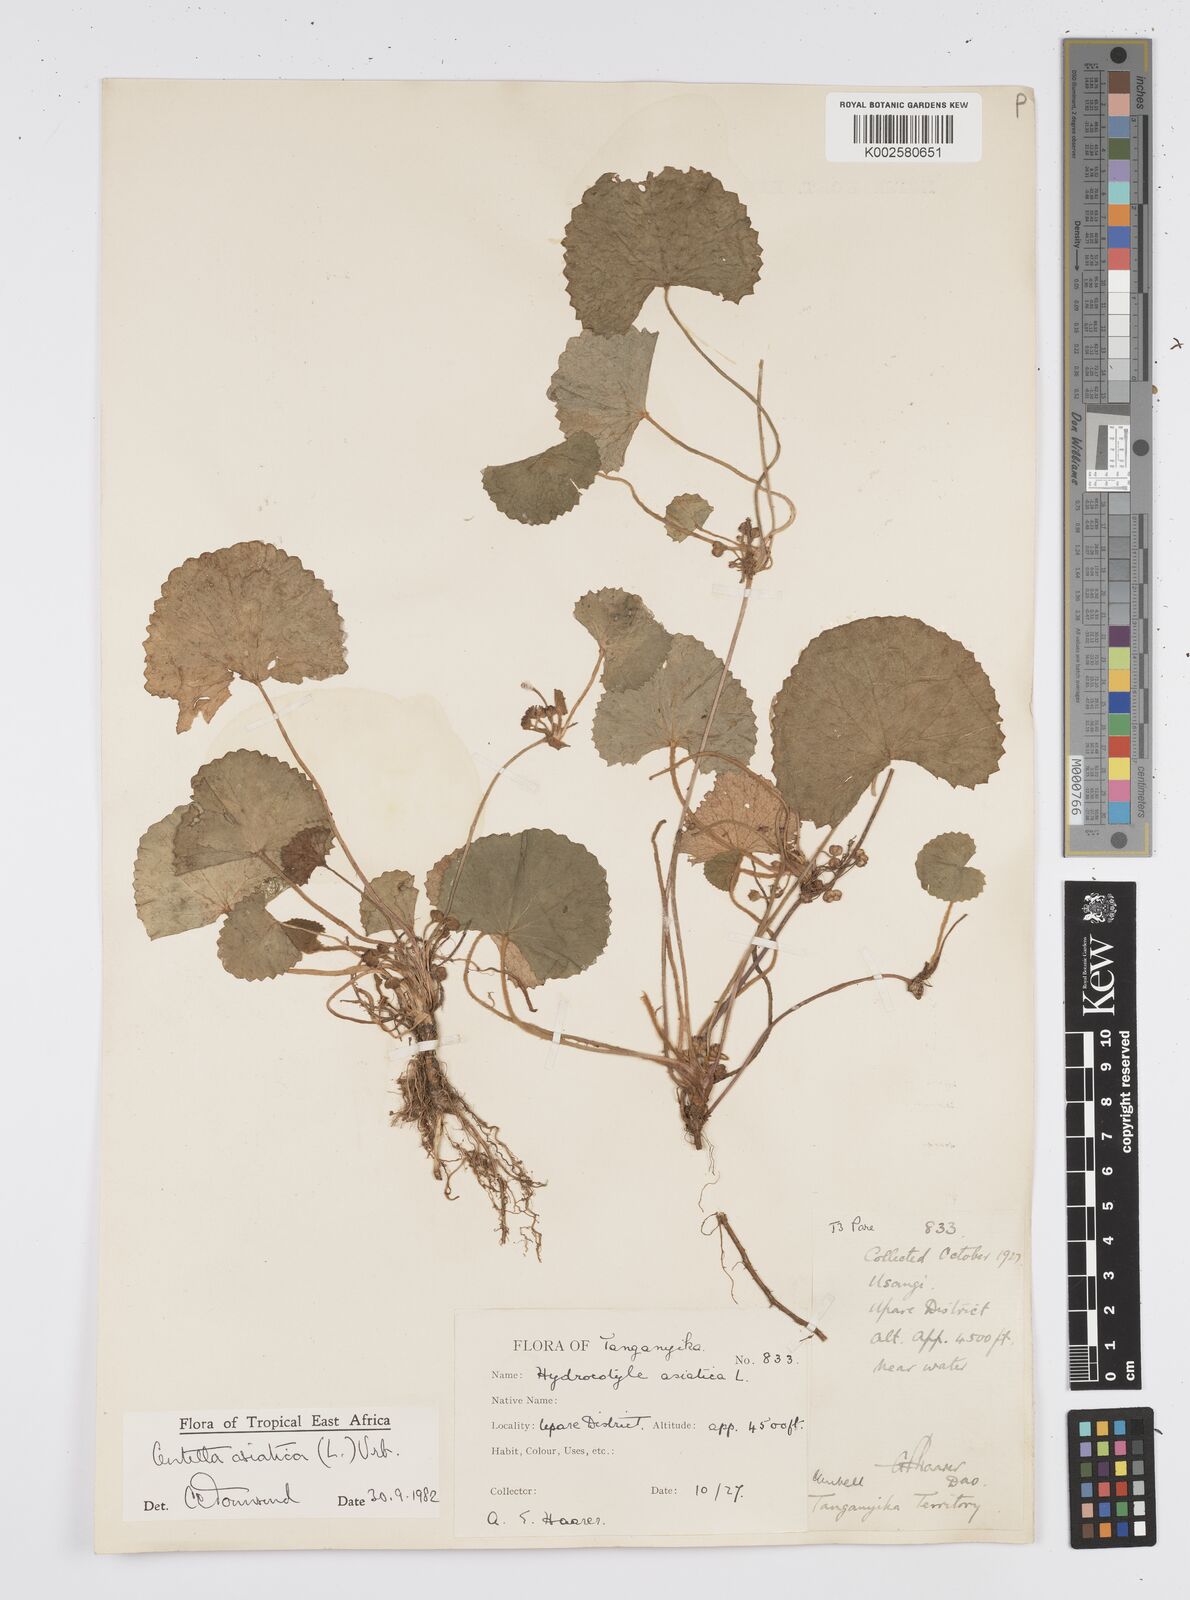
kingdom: Plantae
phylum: Tracheophyta
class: Magnoliopsida
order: Apiales
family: Apiaceae
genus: Centella
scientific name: Centella asiatica
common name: Spadeleaf
